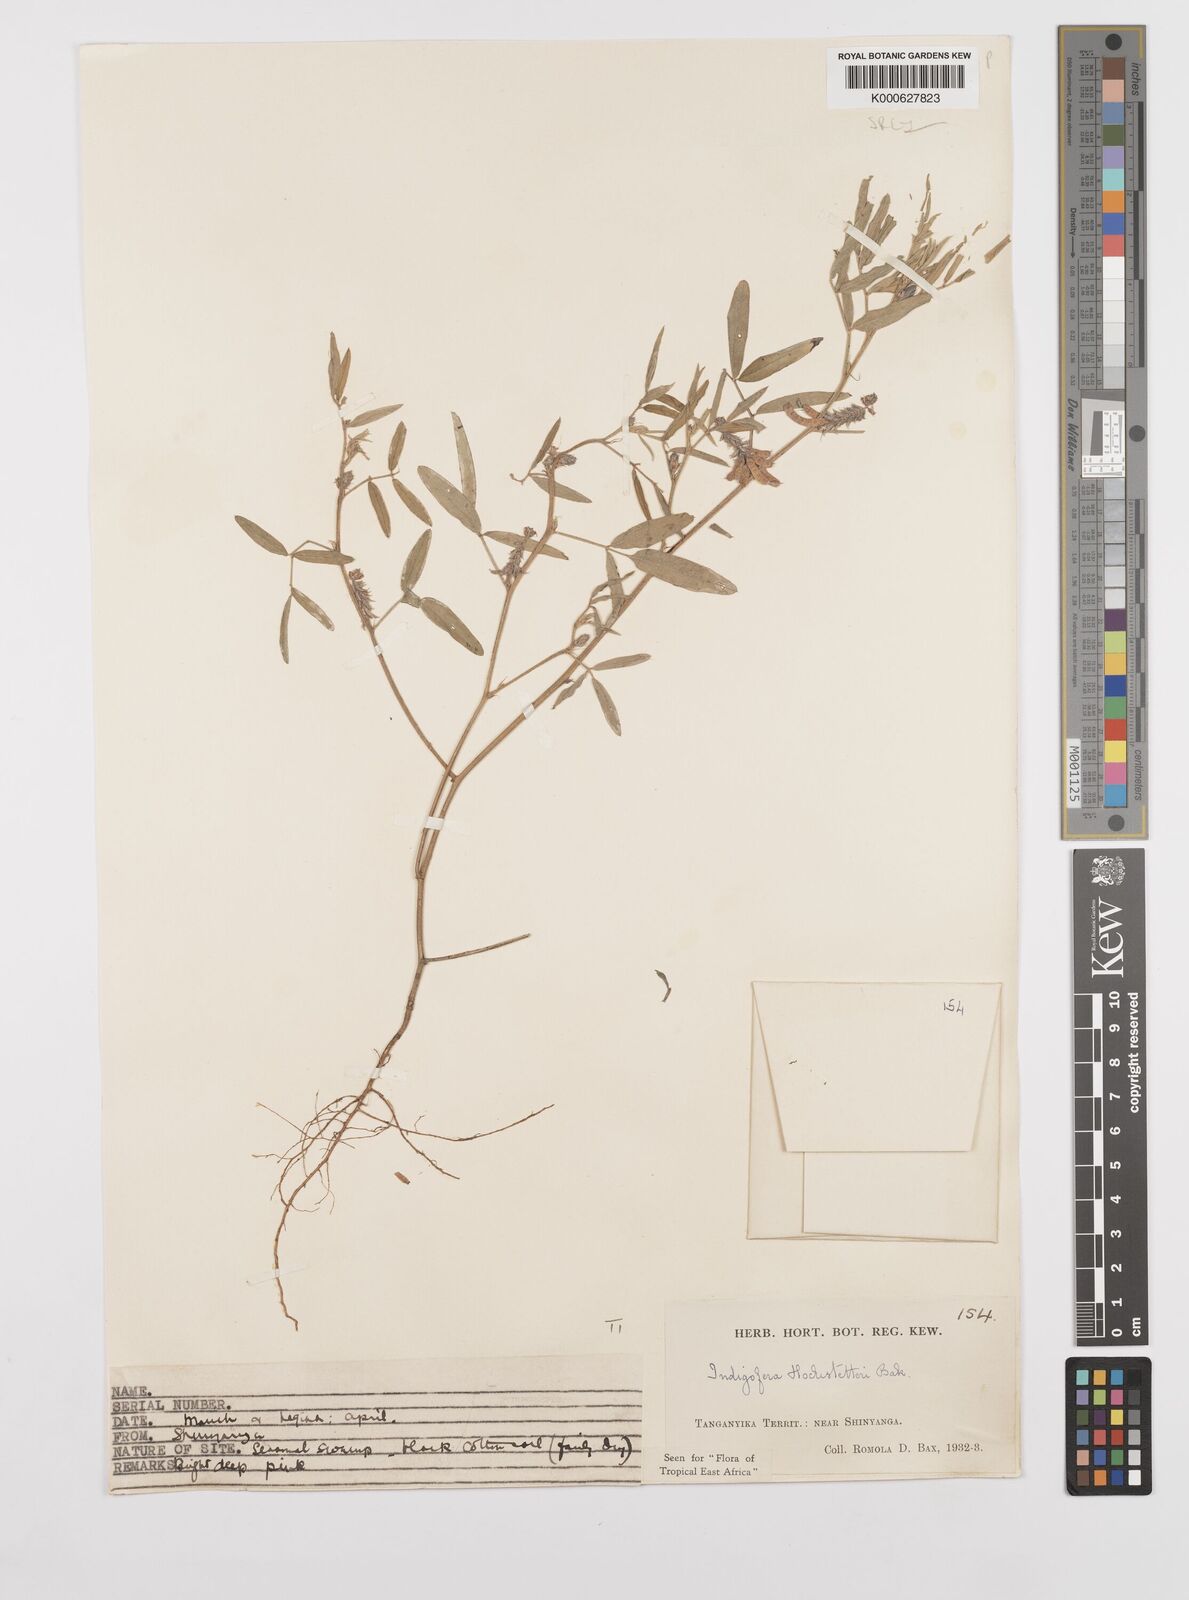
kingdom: Plantae
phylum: Tracheophyta
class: Magnoliopsida
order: Fabales
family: Fabaceae
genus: Indigofera
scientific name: Indigofera hochstetteri
